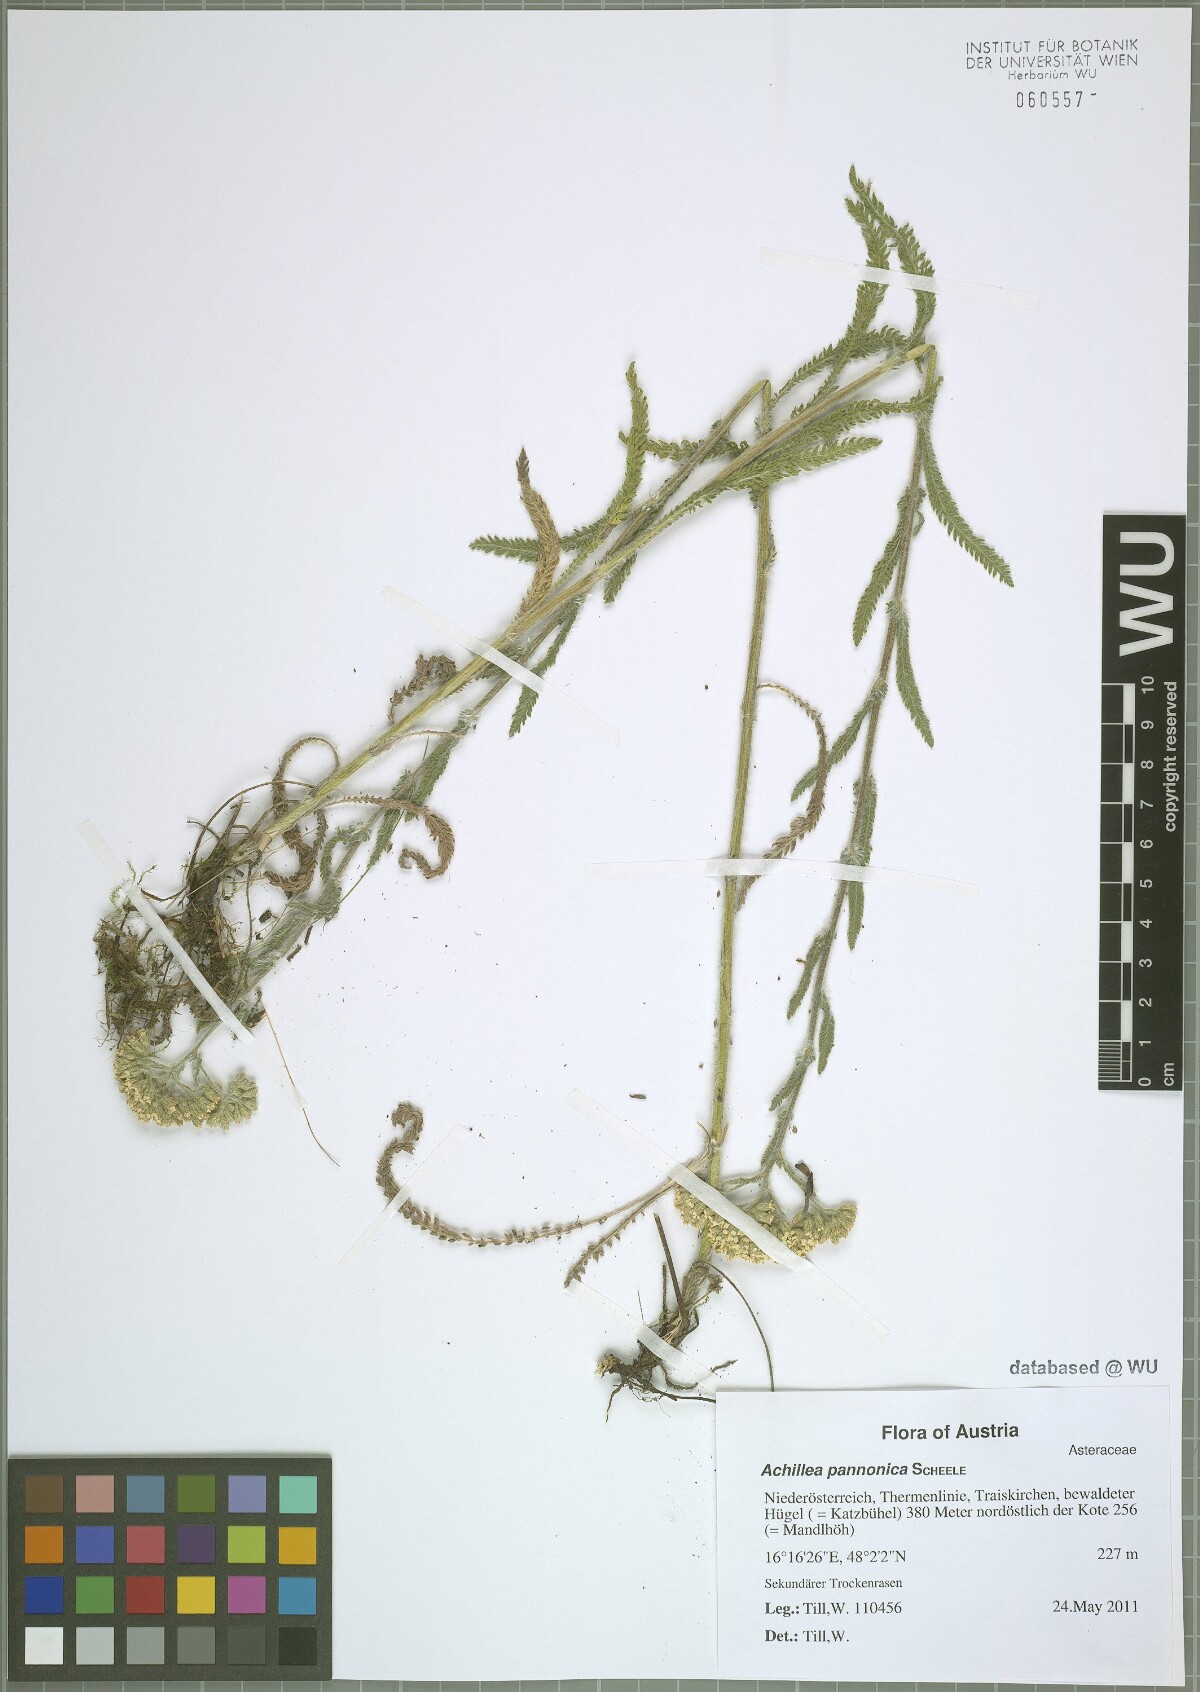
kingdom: Plantae
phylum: Tracheophyta
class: Magnoliopsida
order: Asterales
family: Asteraceae
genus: Achillea
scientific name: Achillea pannonica
